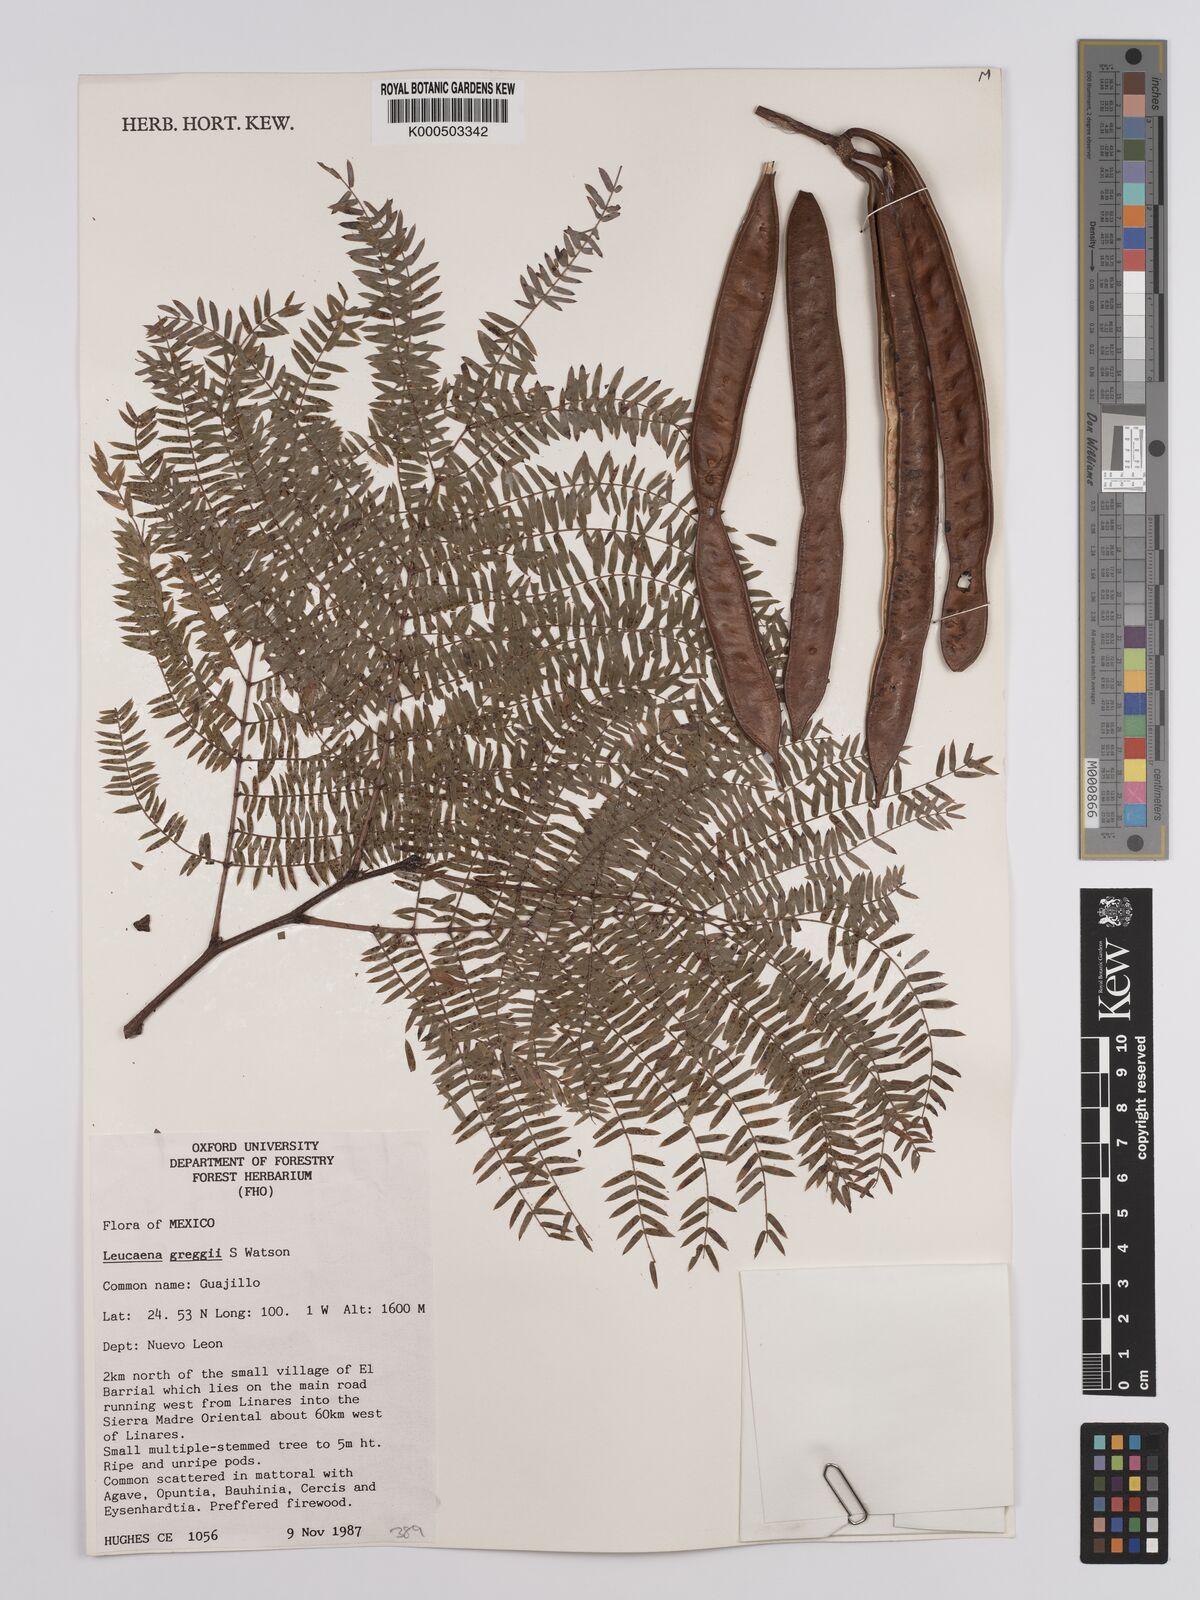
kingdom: Plantae
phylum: Tracheophyta
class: Magnoliopsida
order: Fabales
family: Fabaceae
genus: Leucaena
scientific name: Leucaena greggii
